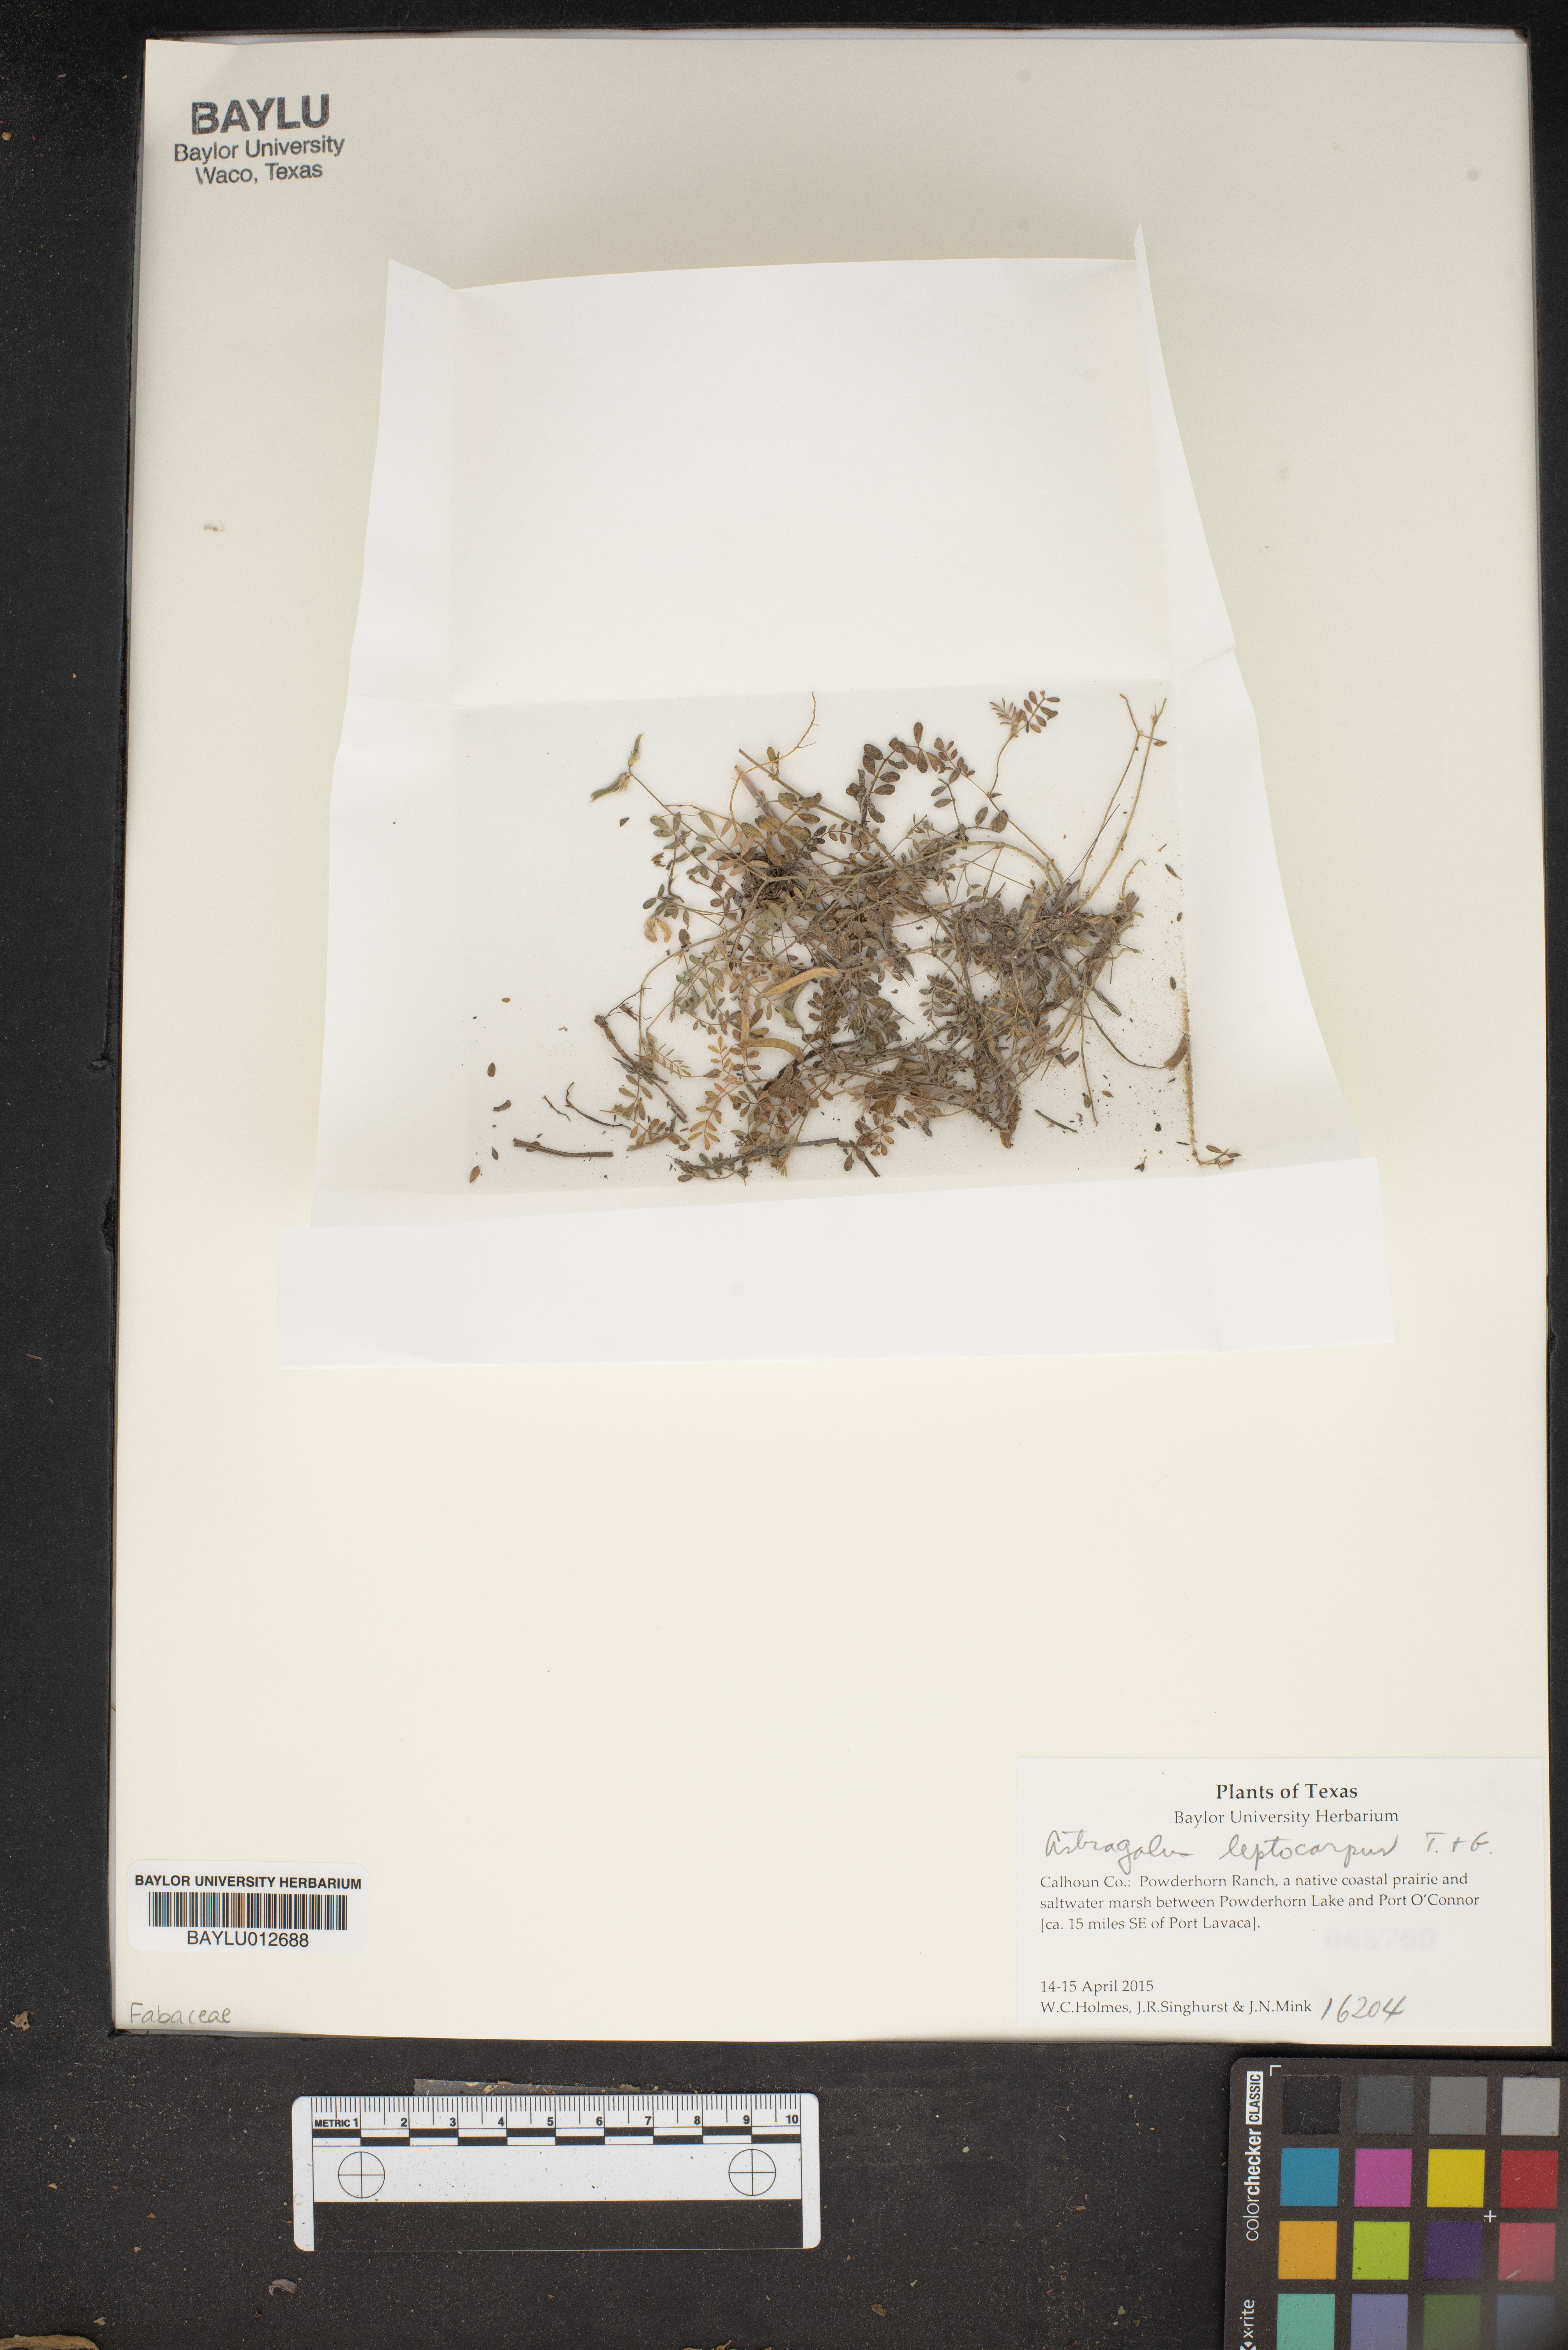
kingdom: Plantae
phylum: Tracheophyta
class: Magnoliopsida
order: Fabales
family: Fabaceae
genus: Astragalus
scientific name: Astragalus leptocarpus
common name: Bodkin milk-vetch
